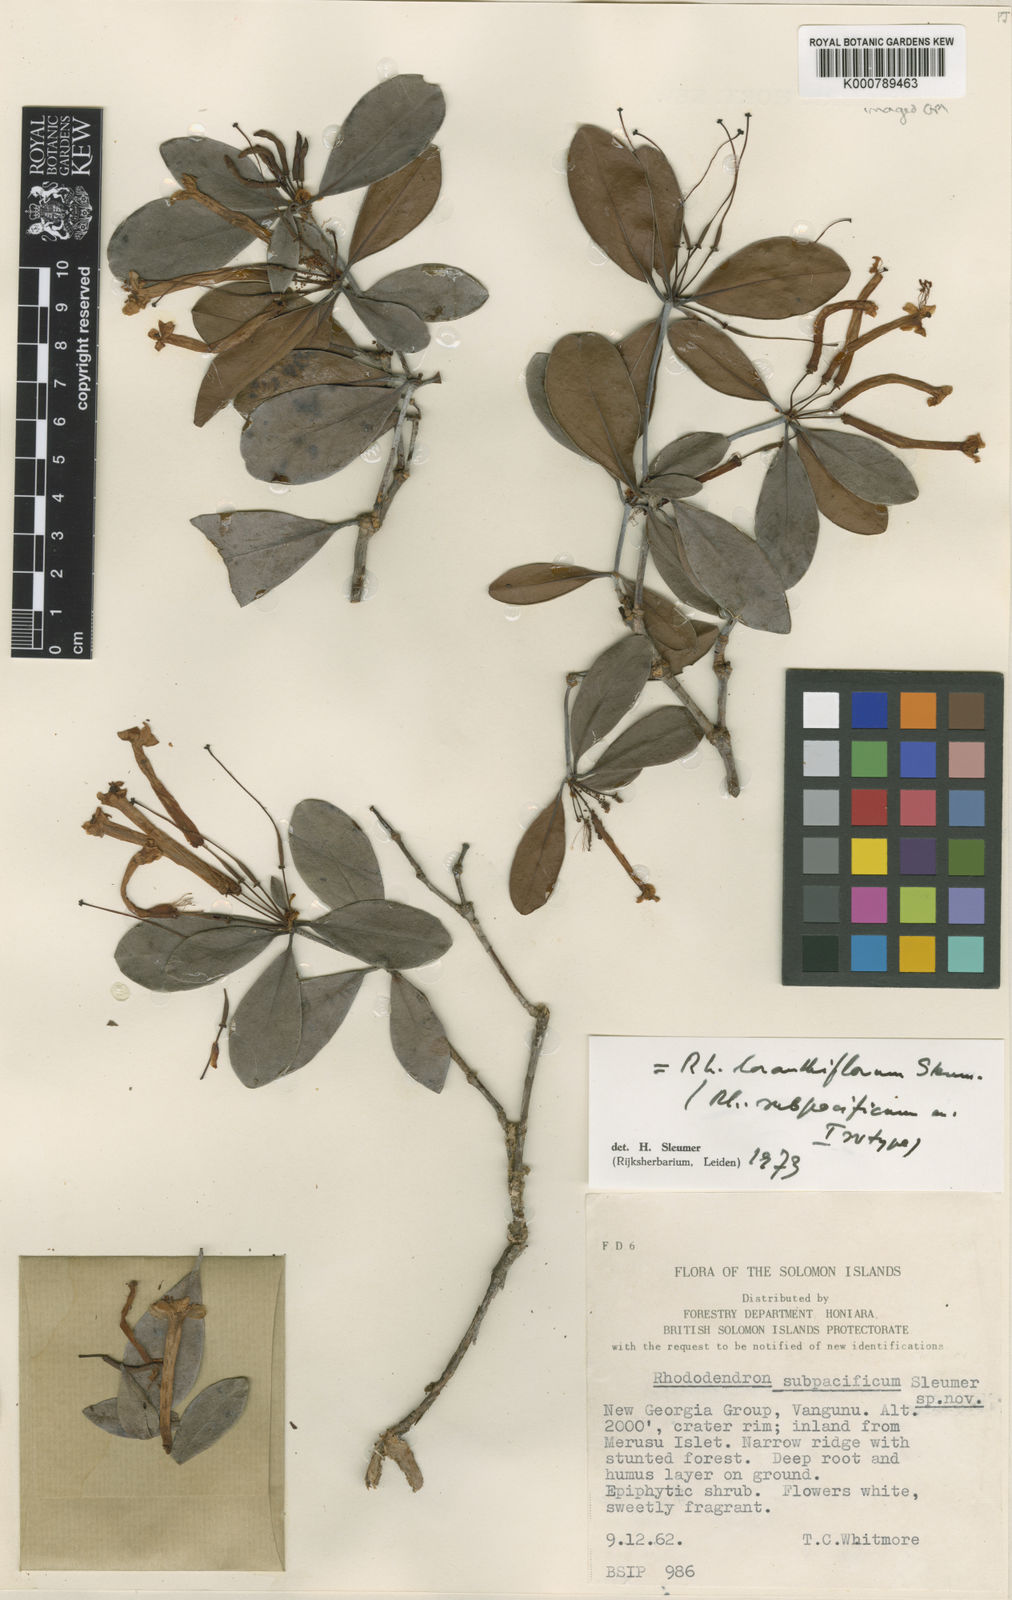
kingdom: Plantae
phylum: Tracheophyta
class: Magnoliopsida
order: Ericales
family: Ericaceae
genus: Rhododendron
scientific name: Rhododendron
